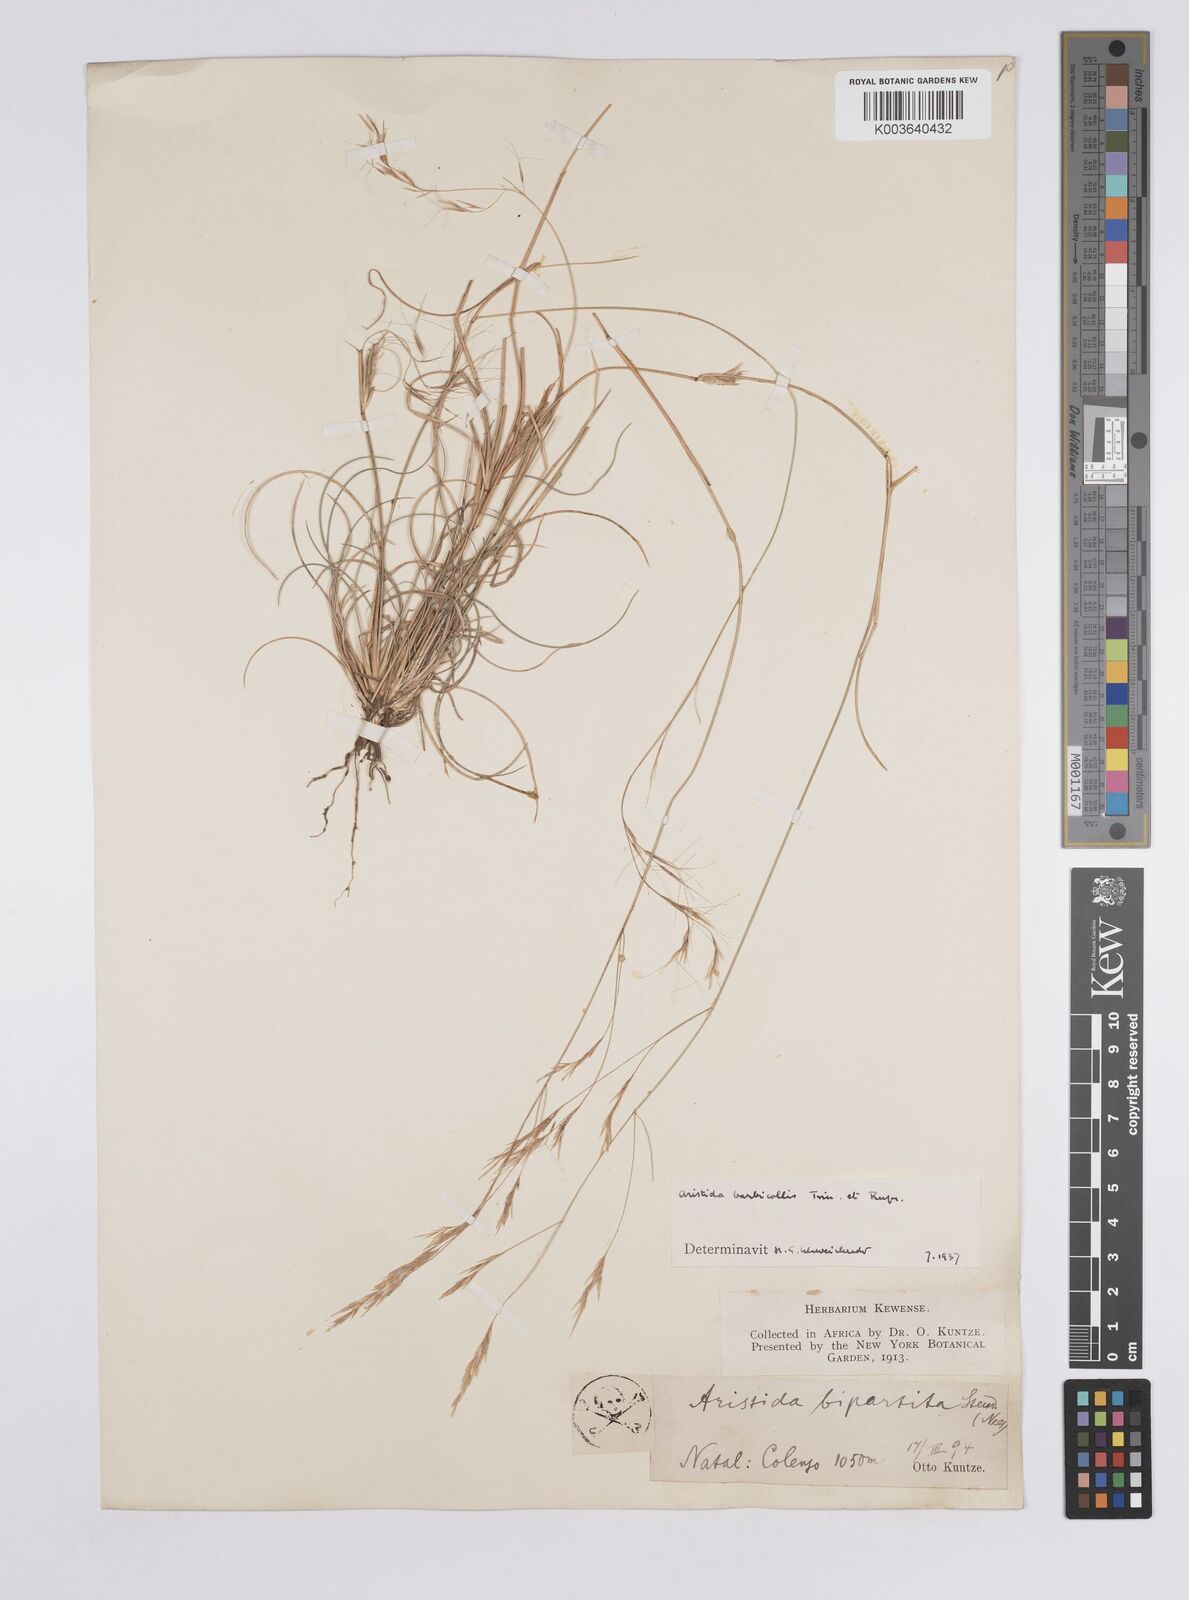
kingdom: Plantae
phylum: Tracheophyta
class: Liliopsida
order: Poales
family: Poaceae
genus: Aristida
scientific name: Aristida barbicollis
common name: Spreading prickle grass
